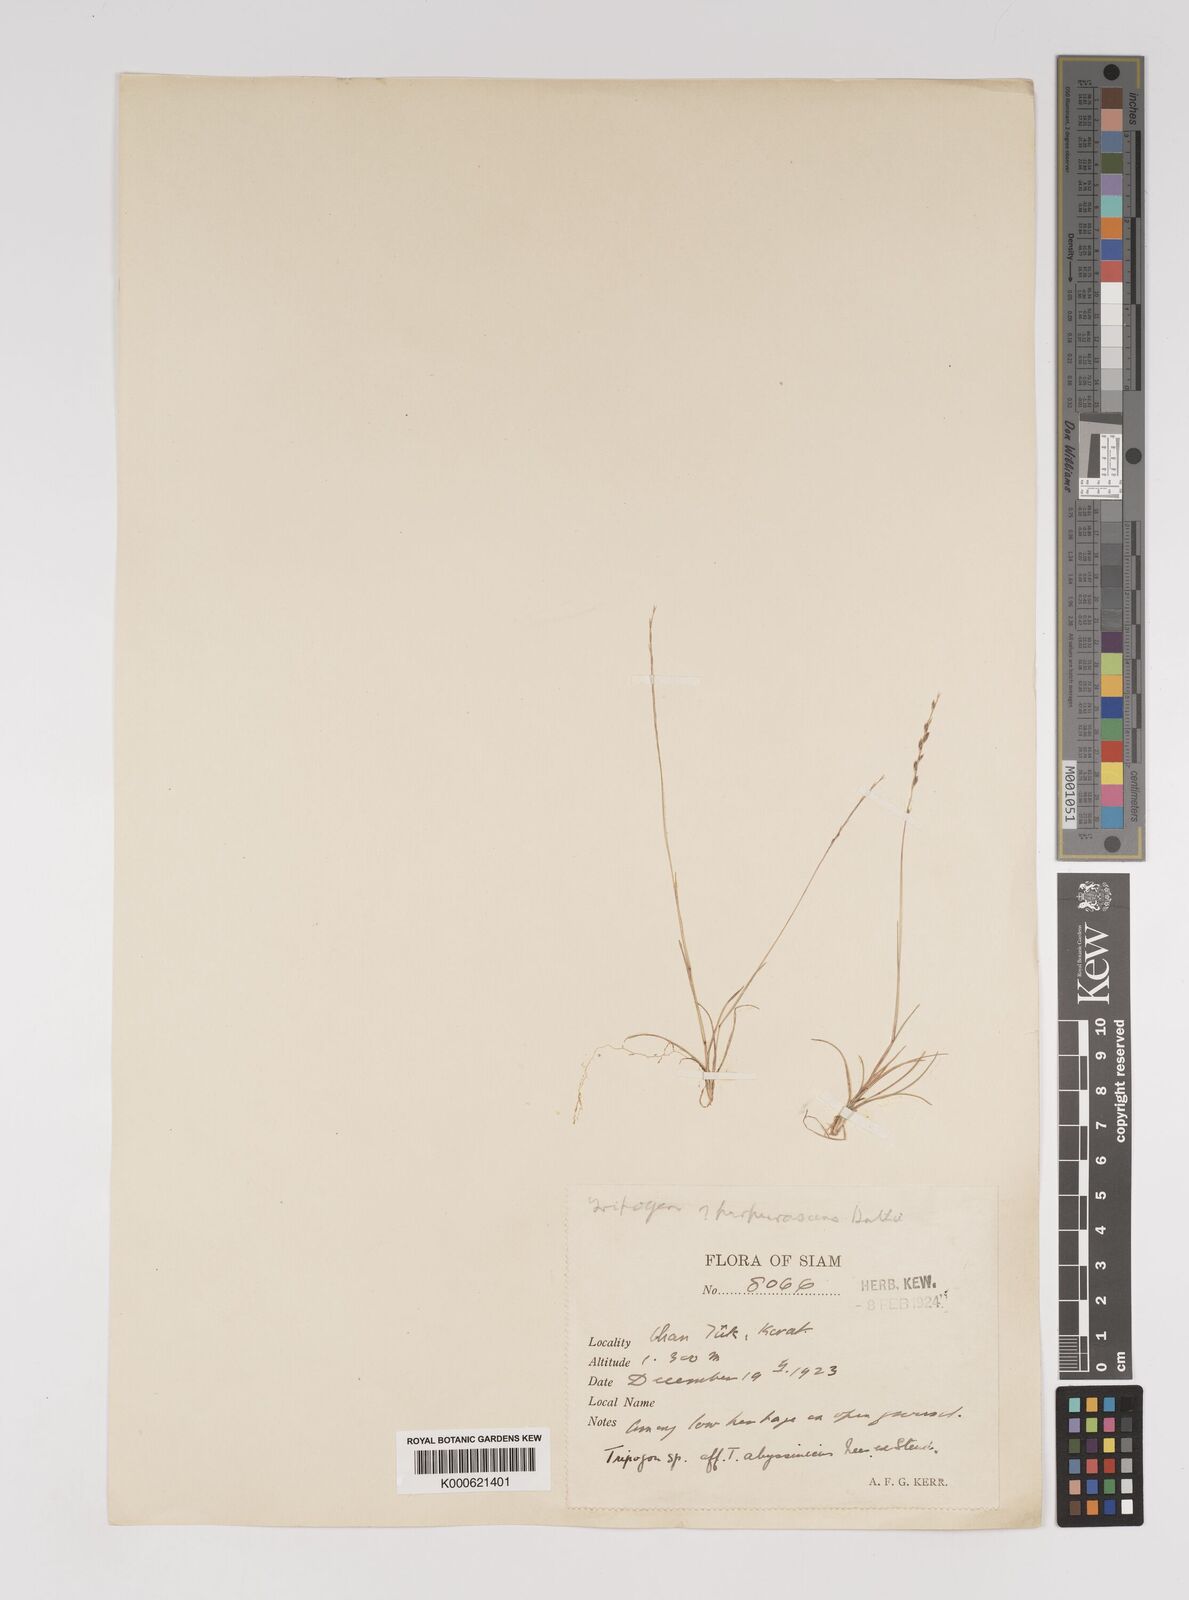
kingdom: Plantae
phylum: Tracheophyta
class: Liliopsida
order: Poales
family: Poaceae
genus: Tripogon
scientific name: Tripogon
